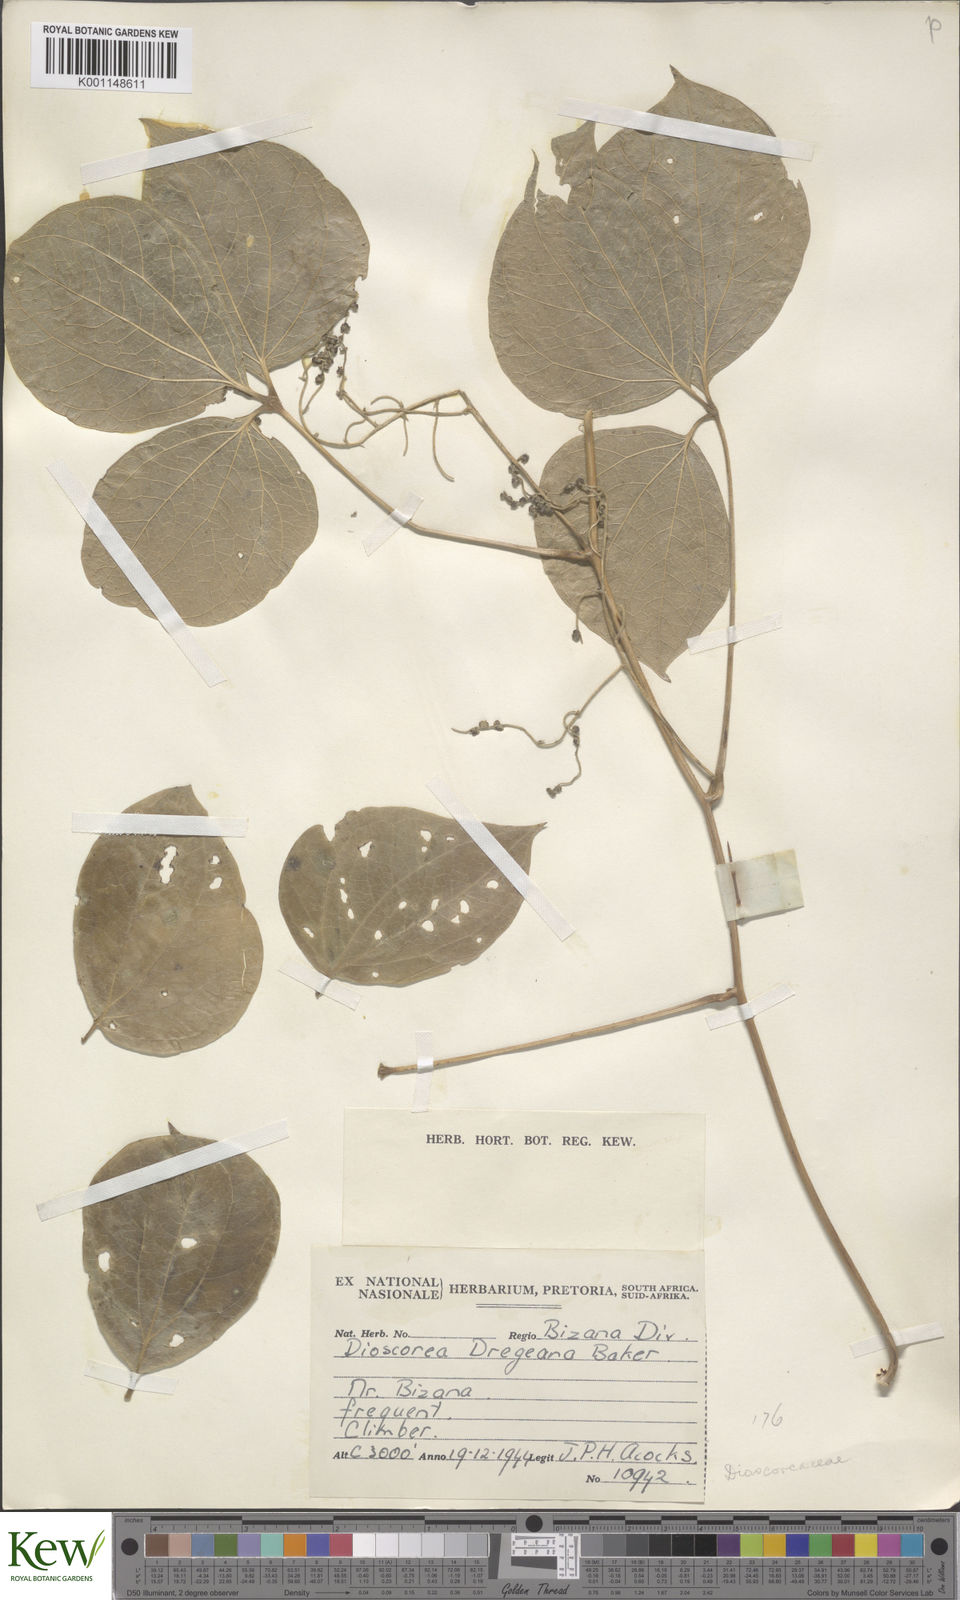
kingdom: Plantae
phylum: Tracheophyta
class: Liliopsida
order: Dioscoreales
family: Dioscoreaceae
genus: Dioscorea
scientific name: Dioscorea dregeana
